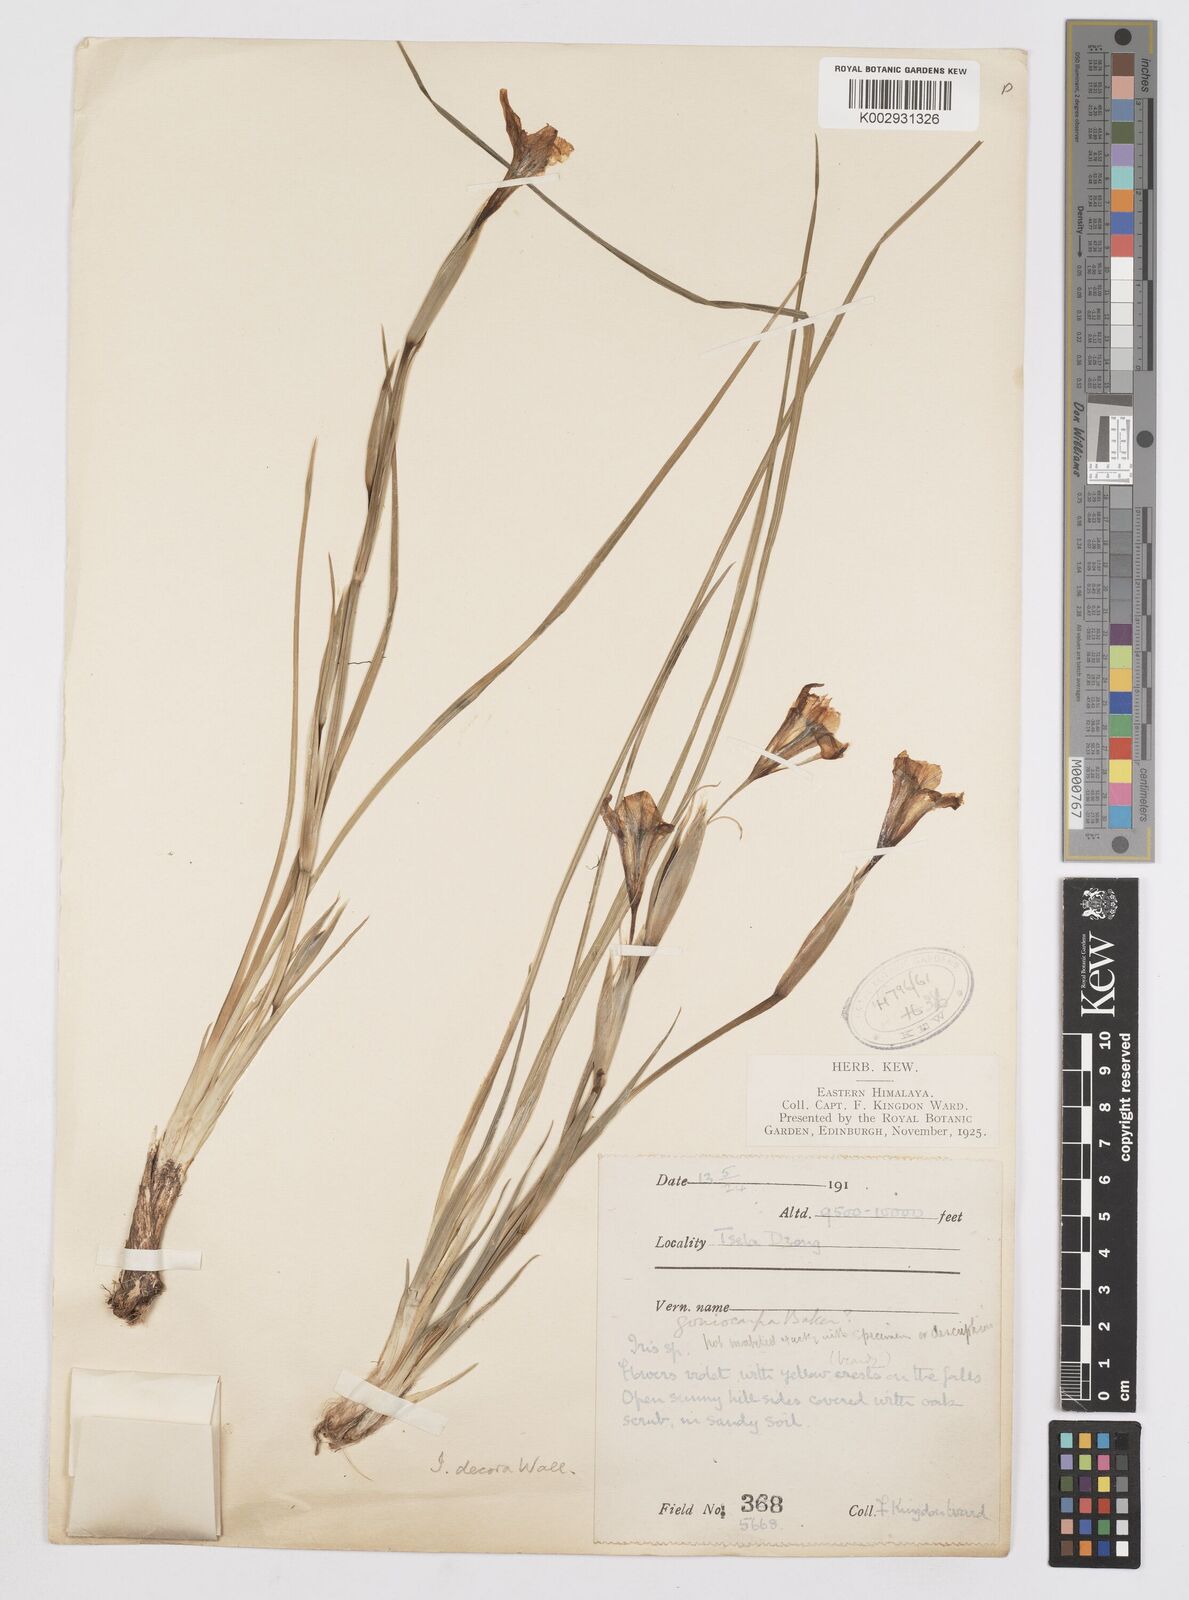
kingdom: Plantae
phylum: Tracheophyta
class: Liliopsida
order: Asparagales
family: Iridaceae
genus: Iris
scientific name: Iris decora
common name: Nepal iris
